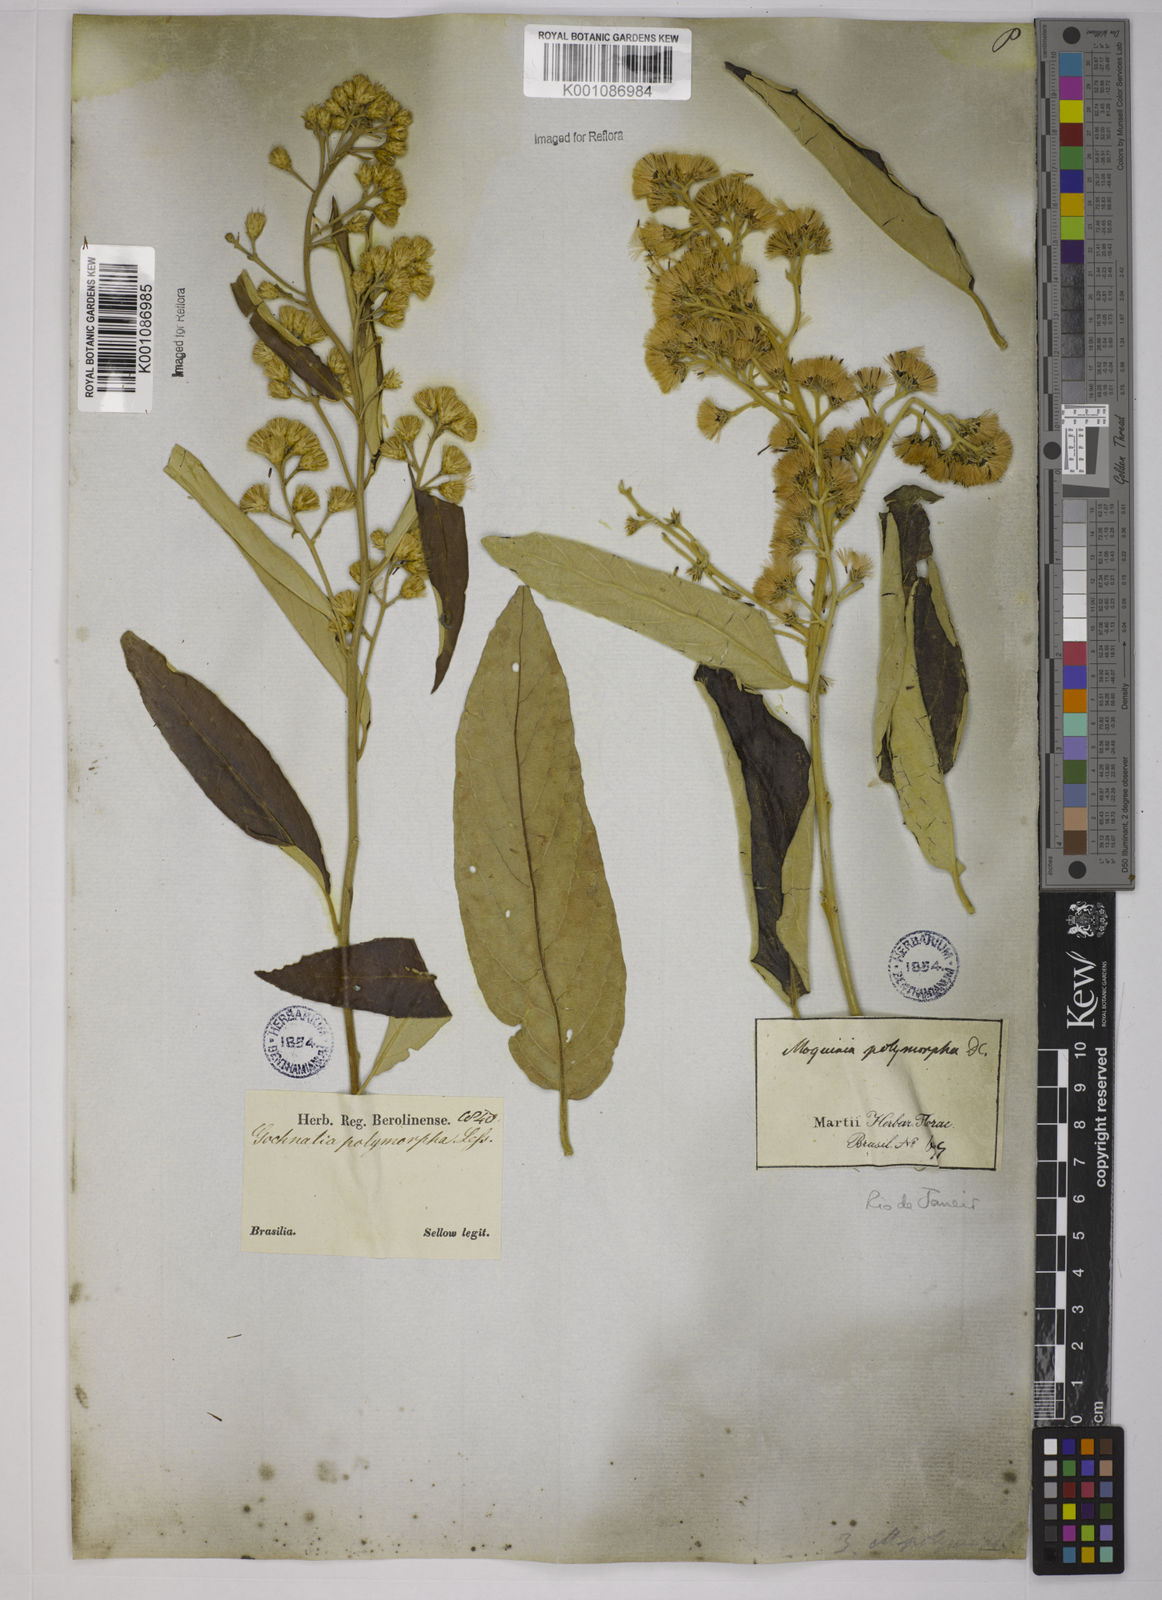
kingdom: Plantae
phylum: Tracheophyta
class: Magnoliopsida
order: Asterales
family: Asteraceae
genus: Moquiniastrum
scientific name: Moquiniastrum polymorphum
